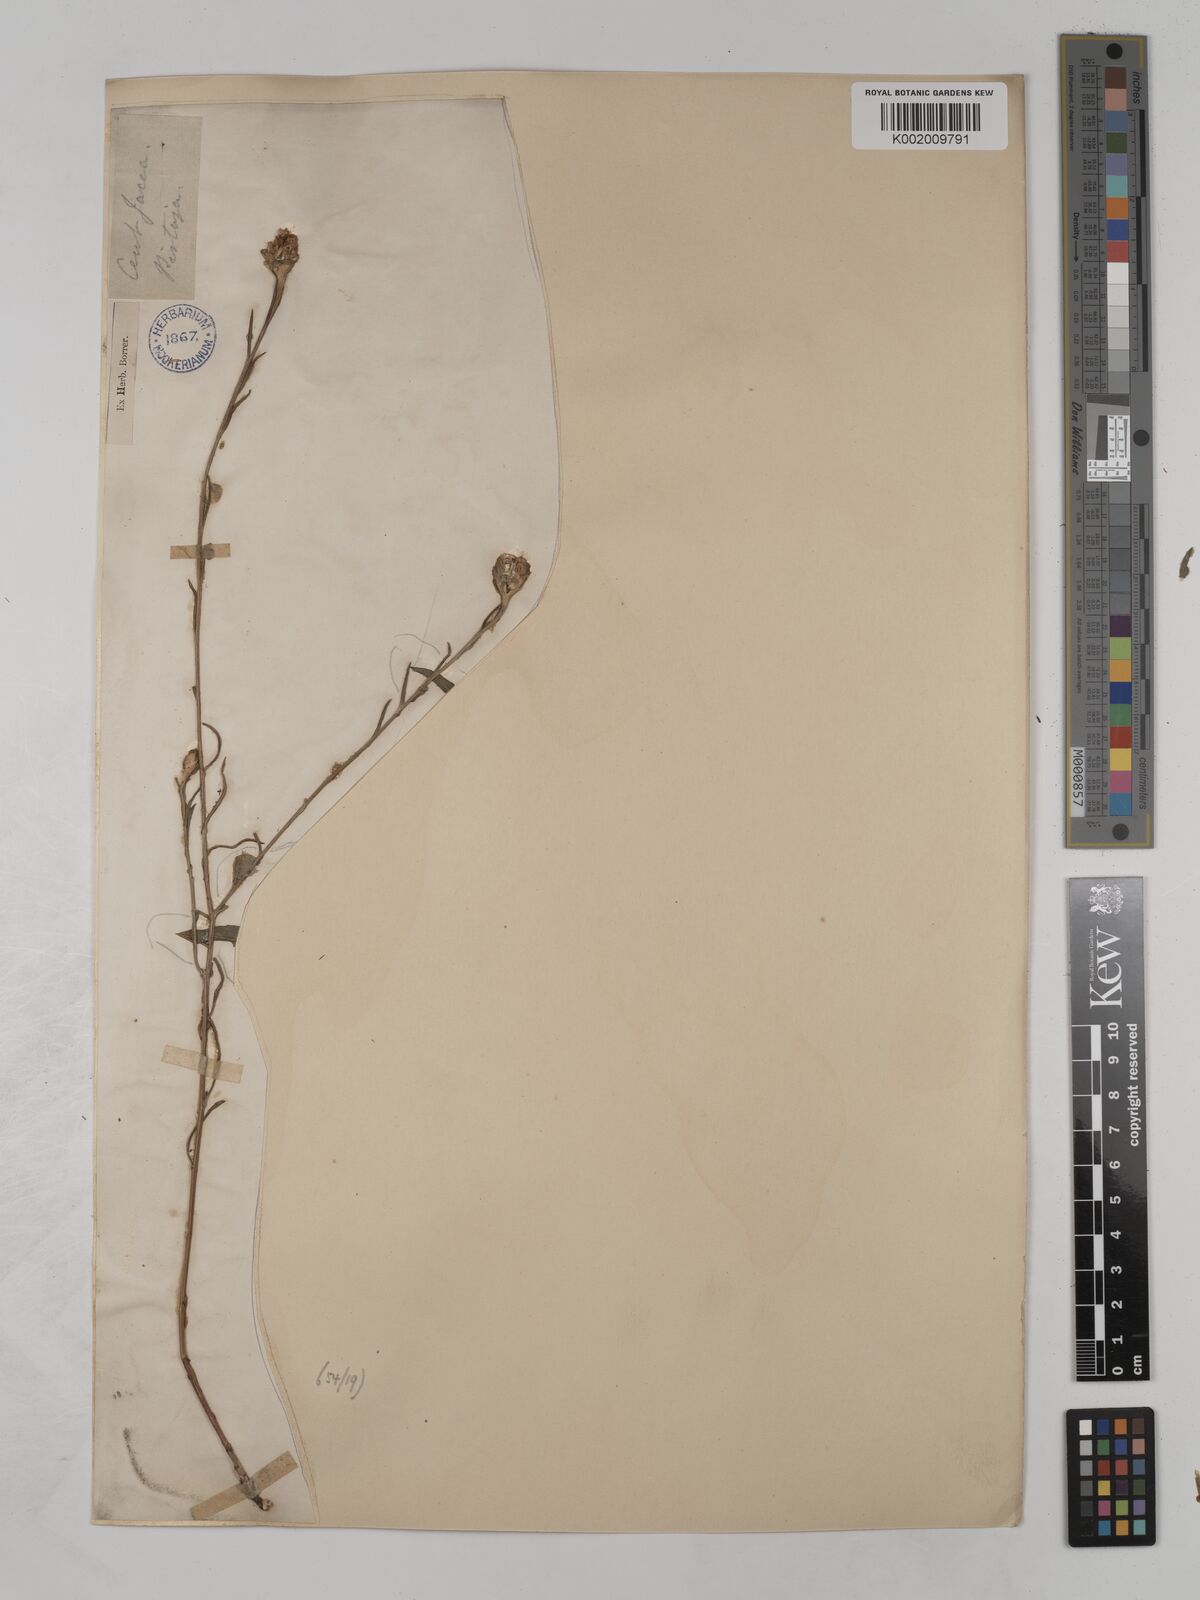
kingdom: Plantae
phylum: Tracheophyta
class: Magnoliopsida
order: Asterales
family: Asteraceae
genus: Centaurea
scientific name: Centaurea timbalii
